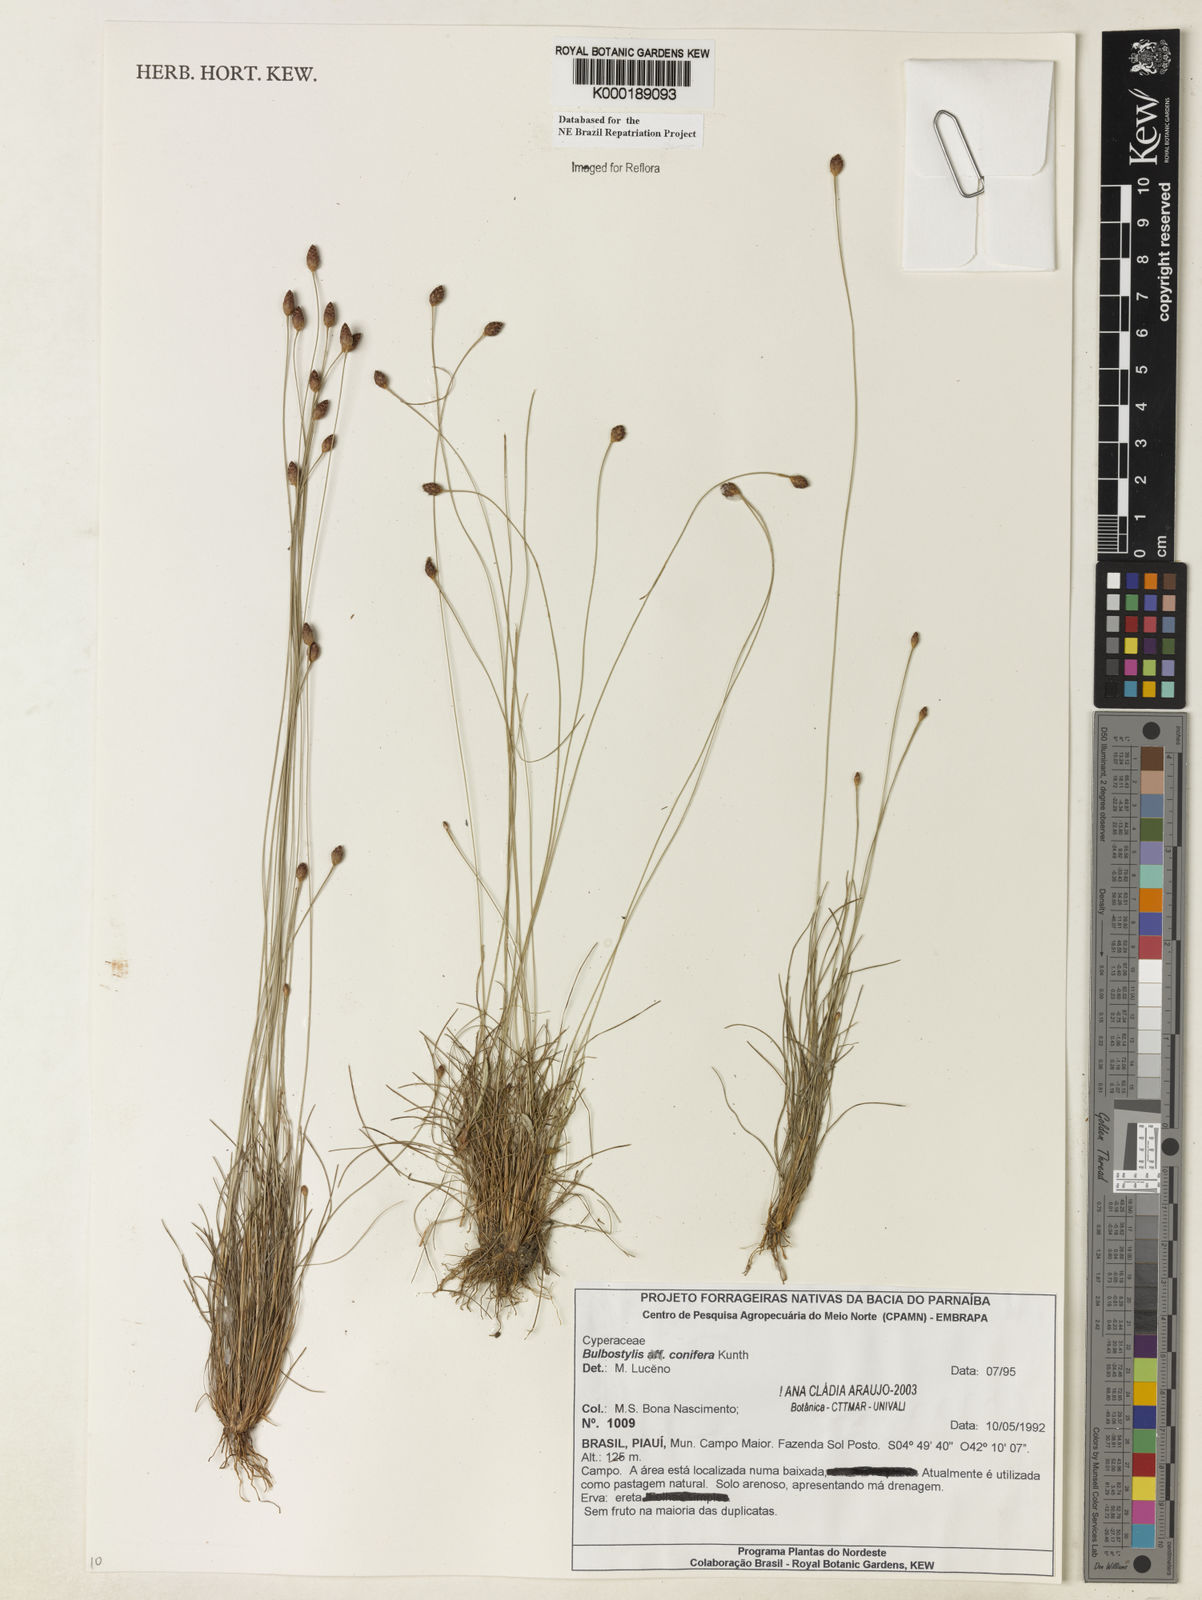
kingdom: Plantae
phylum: Tracheophyta
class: Liliopsida
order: Poales
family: Cyperaceae
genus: Bulbostylis
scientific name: Bulbostylis conifera
